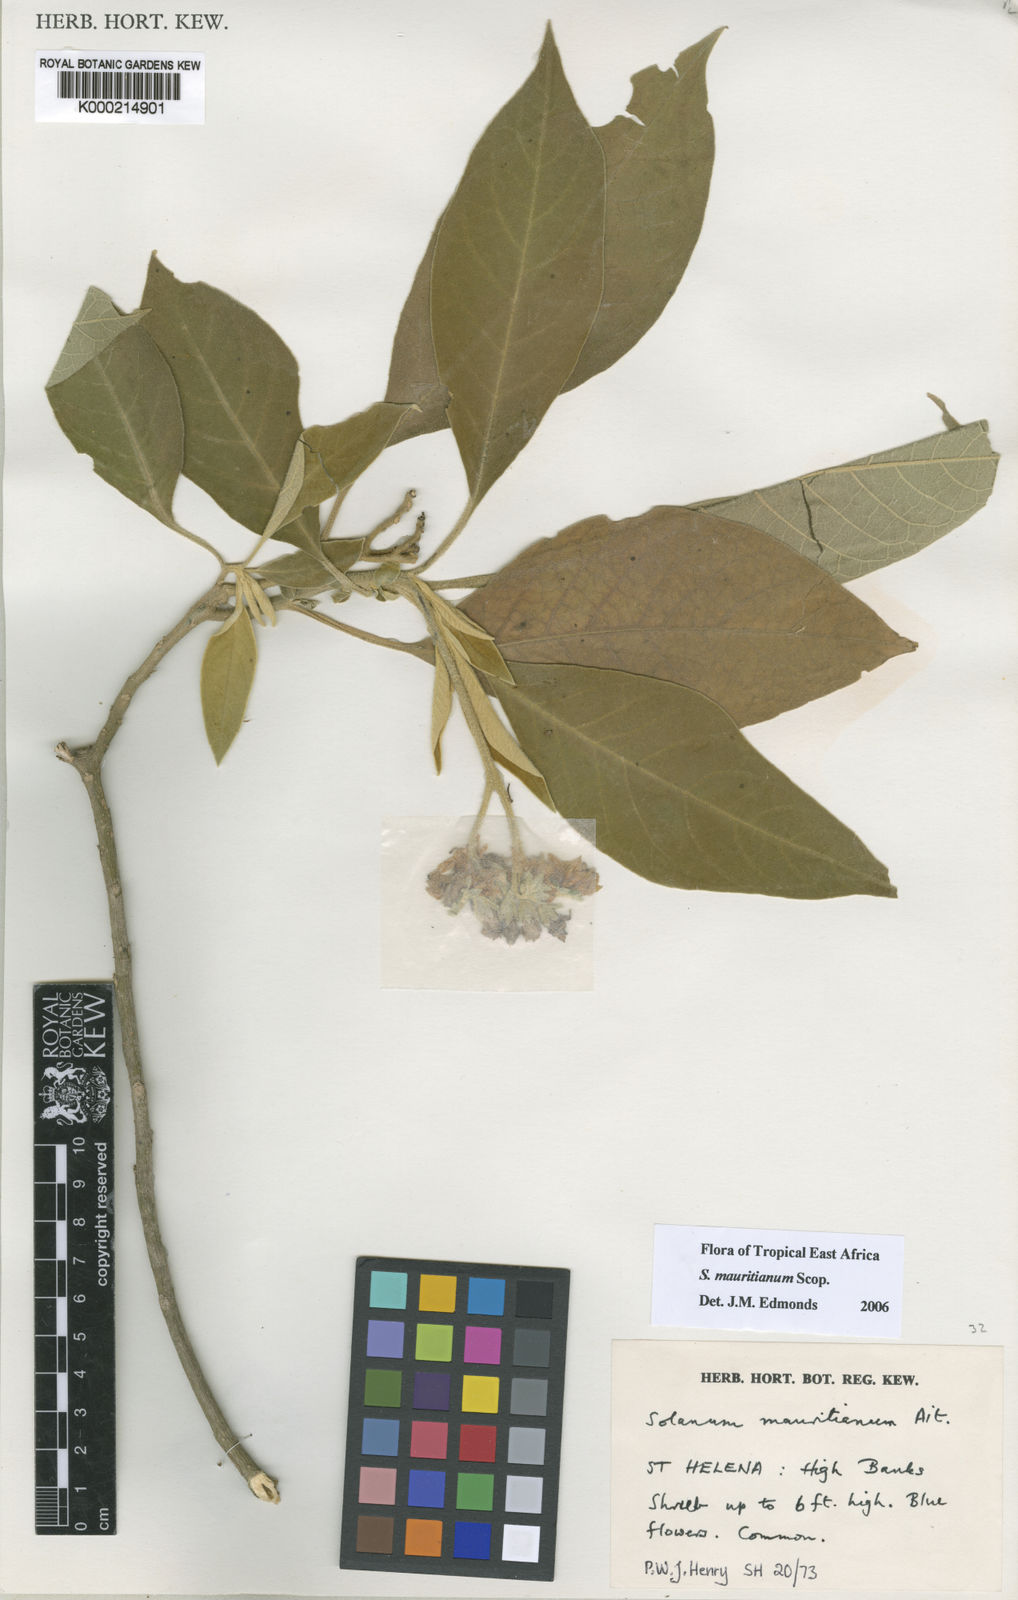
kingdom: Plantae
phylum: Tracheophyta
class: Magnoliopsida
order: Solanales
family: Solanaceae
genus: Solanum
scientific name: Solanum mauritianum
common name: Earleaf nightshade
